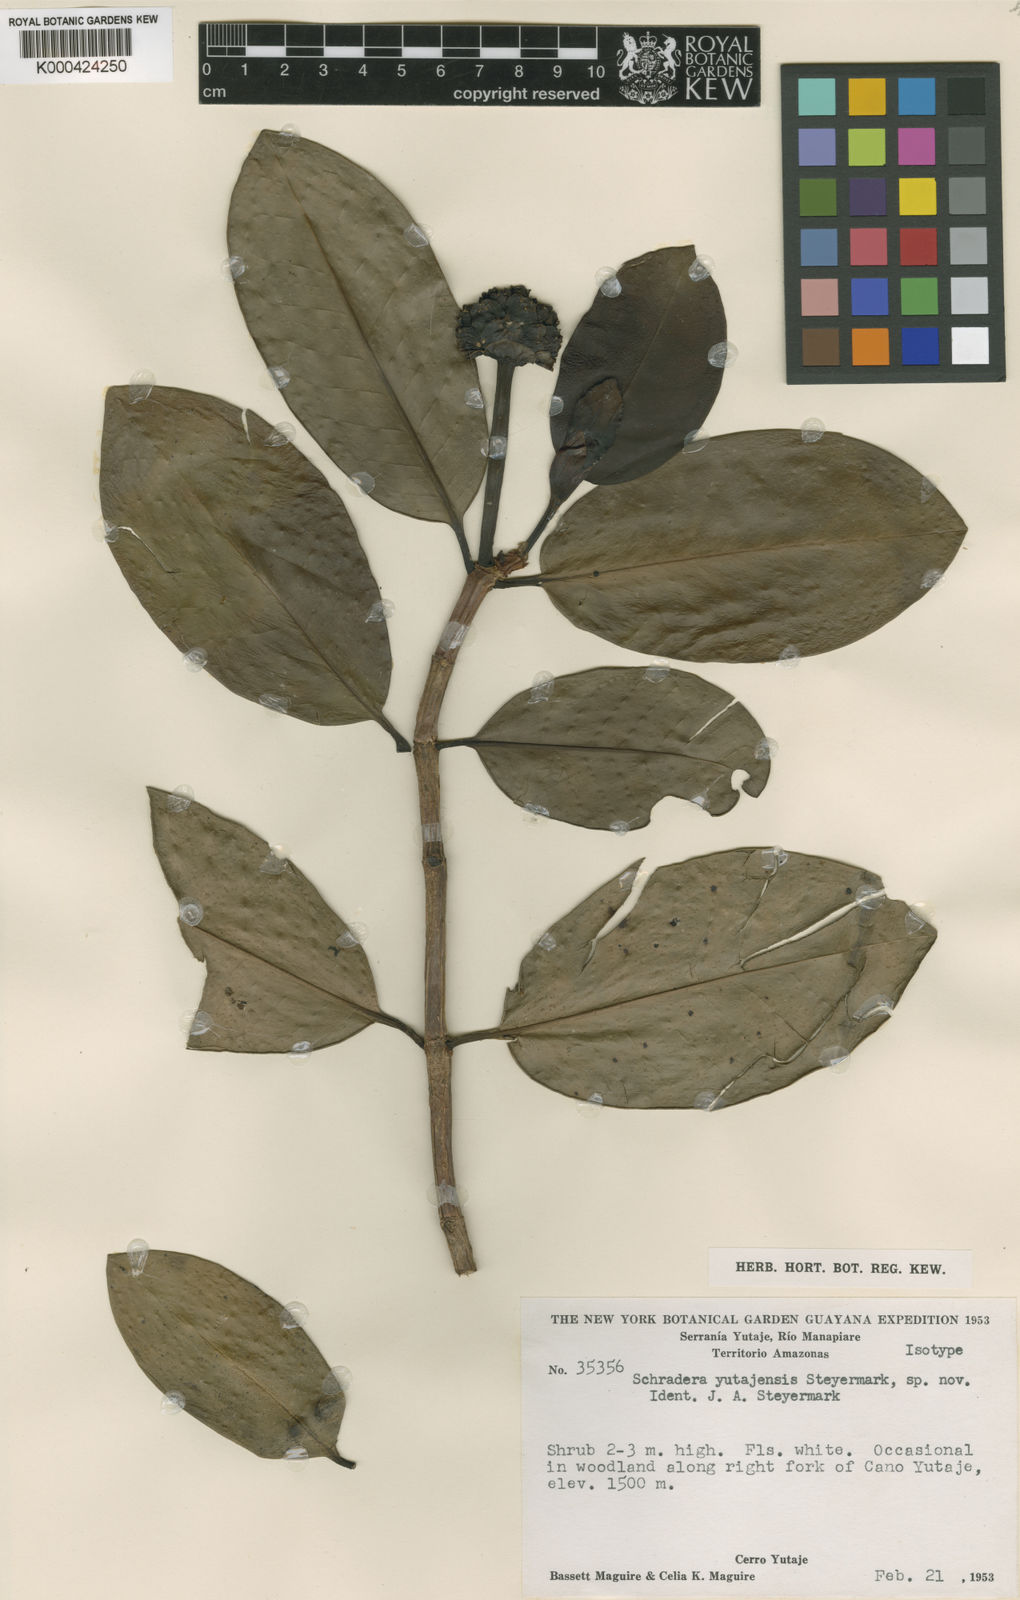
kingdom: Plantae
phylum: Tracheophyta
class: Magnoliopsida
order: Gentianales
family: Rubiaceae
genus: Schradera
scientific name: Schradera yutajensis
